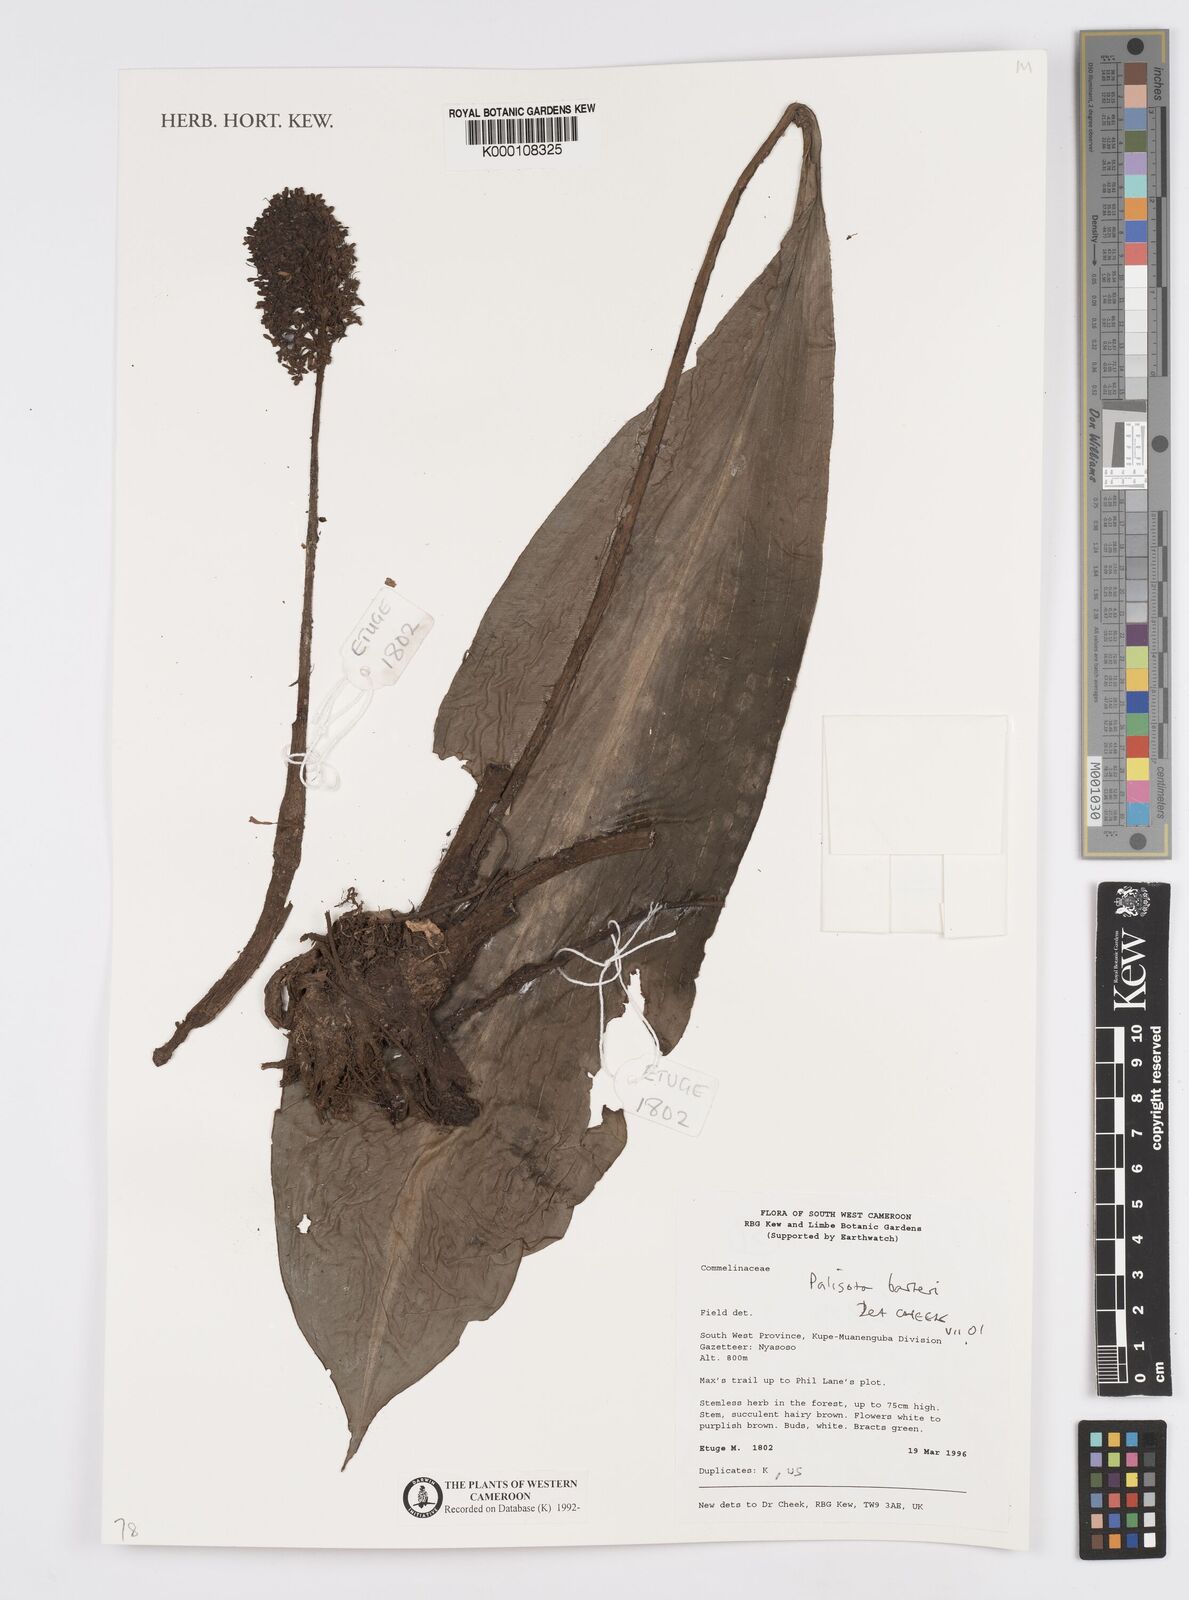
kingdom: Plantae
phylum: Tracheophyta
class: Liliopsida
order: Commelinales
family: Commelinaceae
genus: Palisota
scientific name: Palisota barteri
